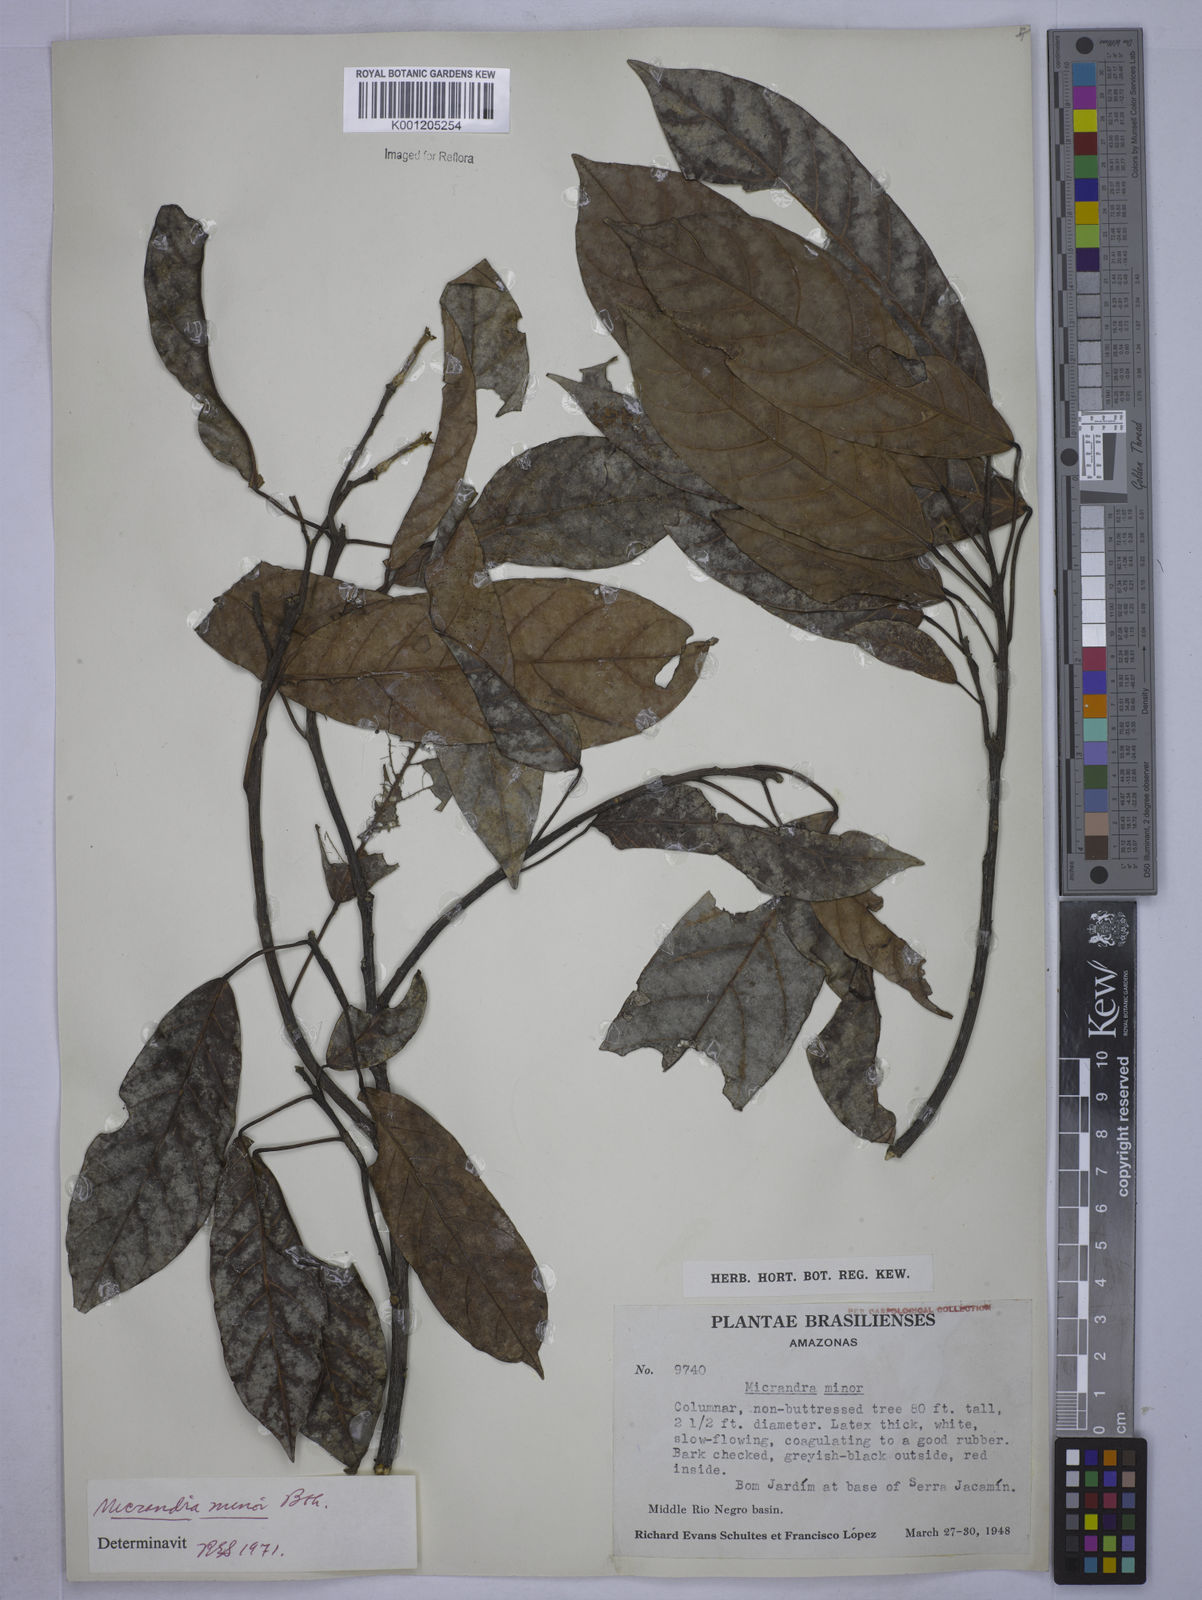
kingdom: Plantae
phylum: Tracheophyta
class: Magnoliopsida
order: Malpighiales
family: Euphorbiaceae
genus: Micrandra
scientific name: Micrandra minor
